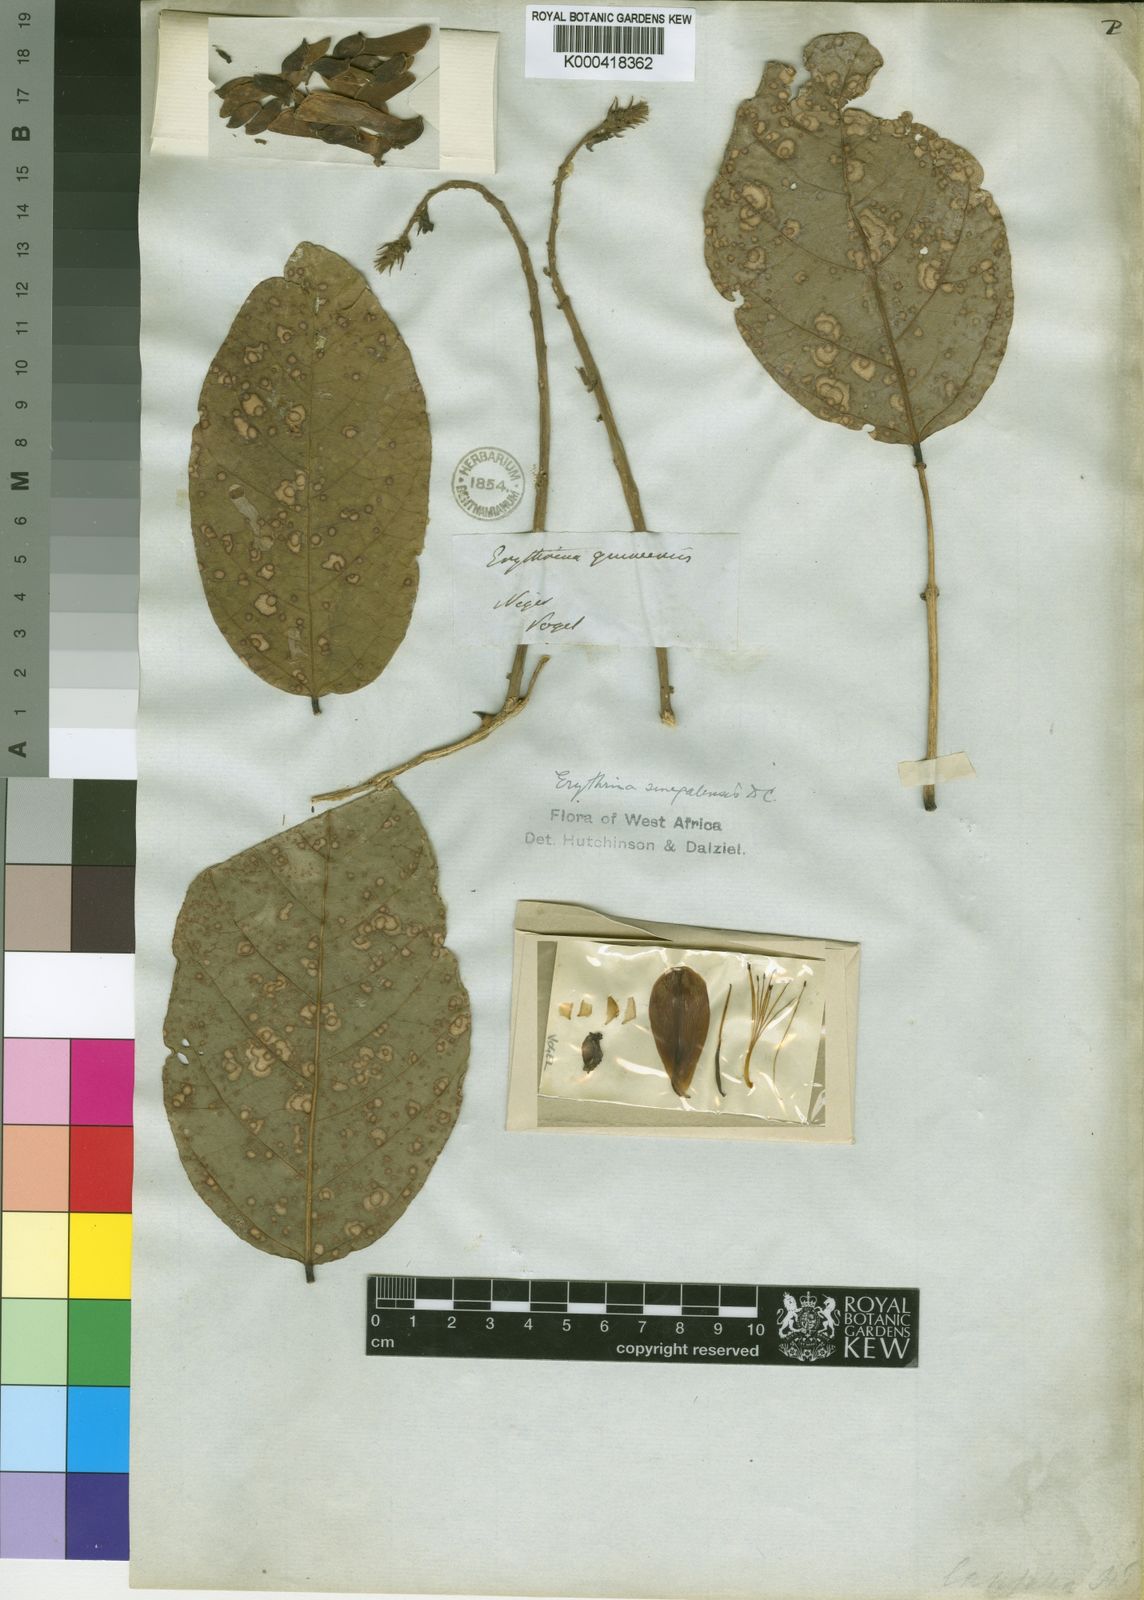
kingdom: Plantae
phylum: Tracheophyta
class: Magnoliopsida
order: Fabales
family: Fabaceae
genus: Erythrina
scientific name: Erythrina vogelii
